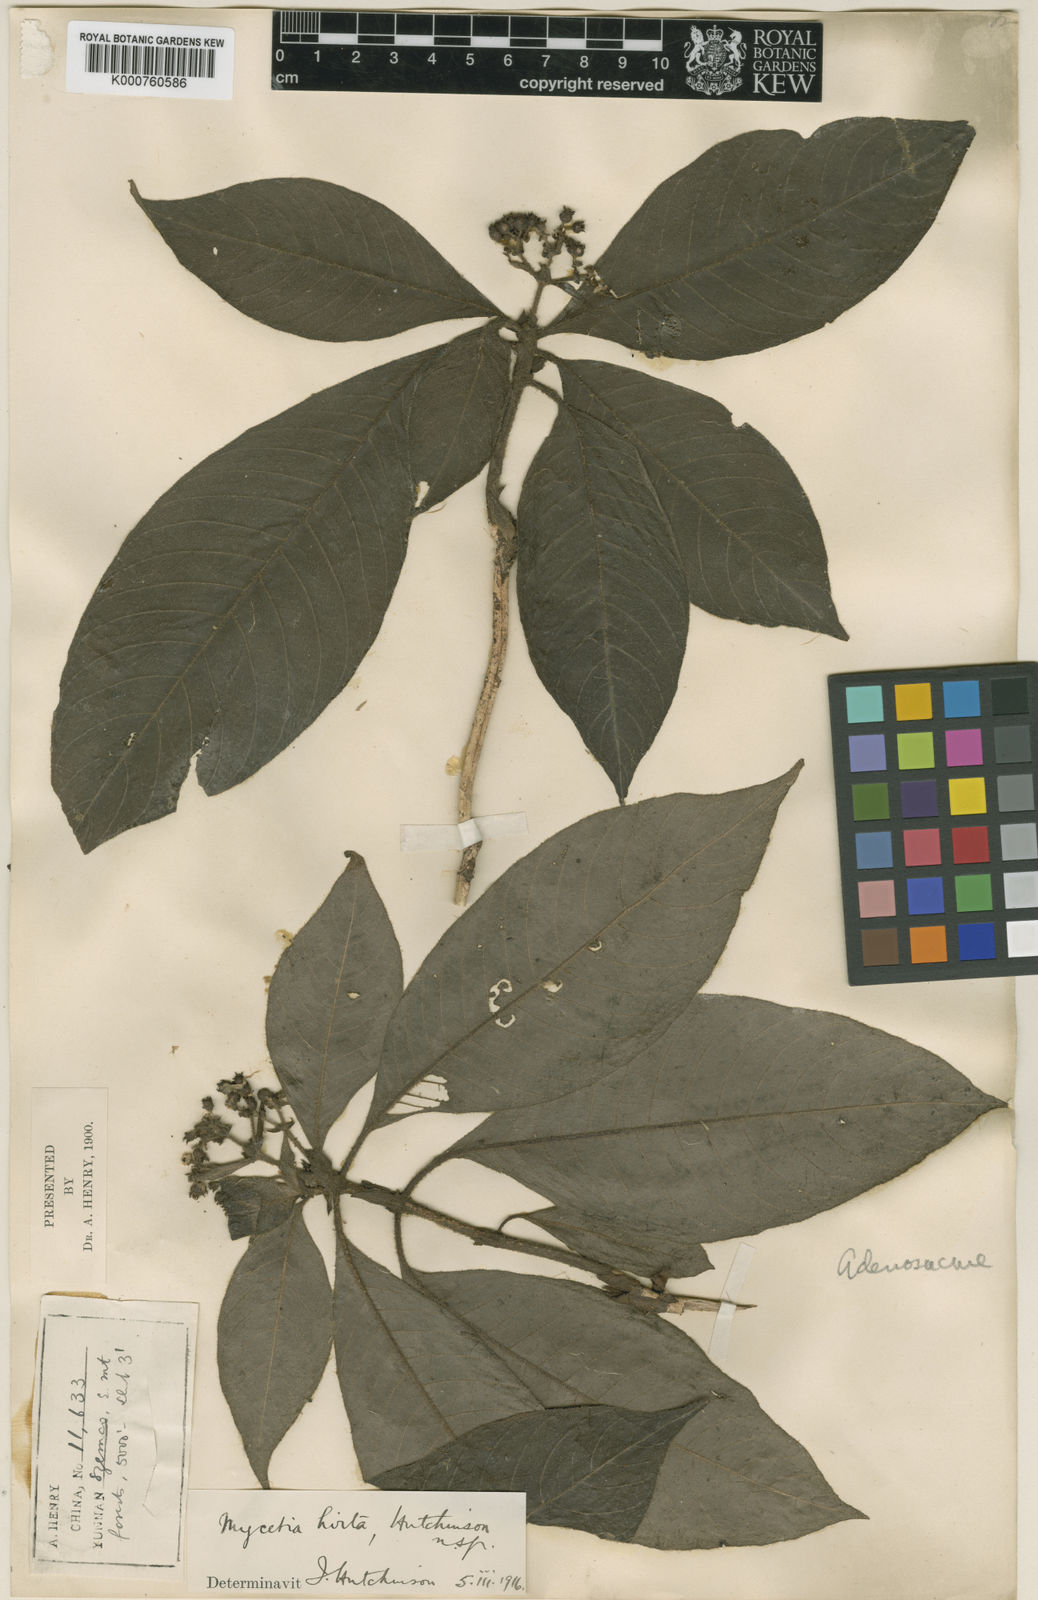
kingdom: Plantae
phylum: Tracheophyta
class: Magnoliopsida
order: Gentianales
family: Rubiaceae
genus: Mycetia
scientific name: Mycetia hirta
